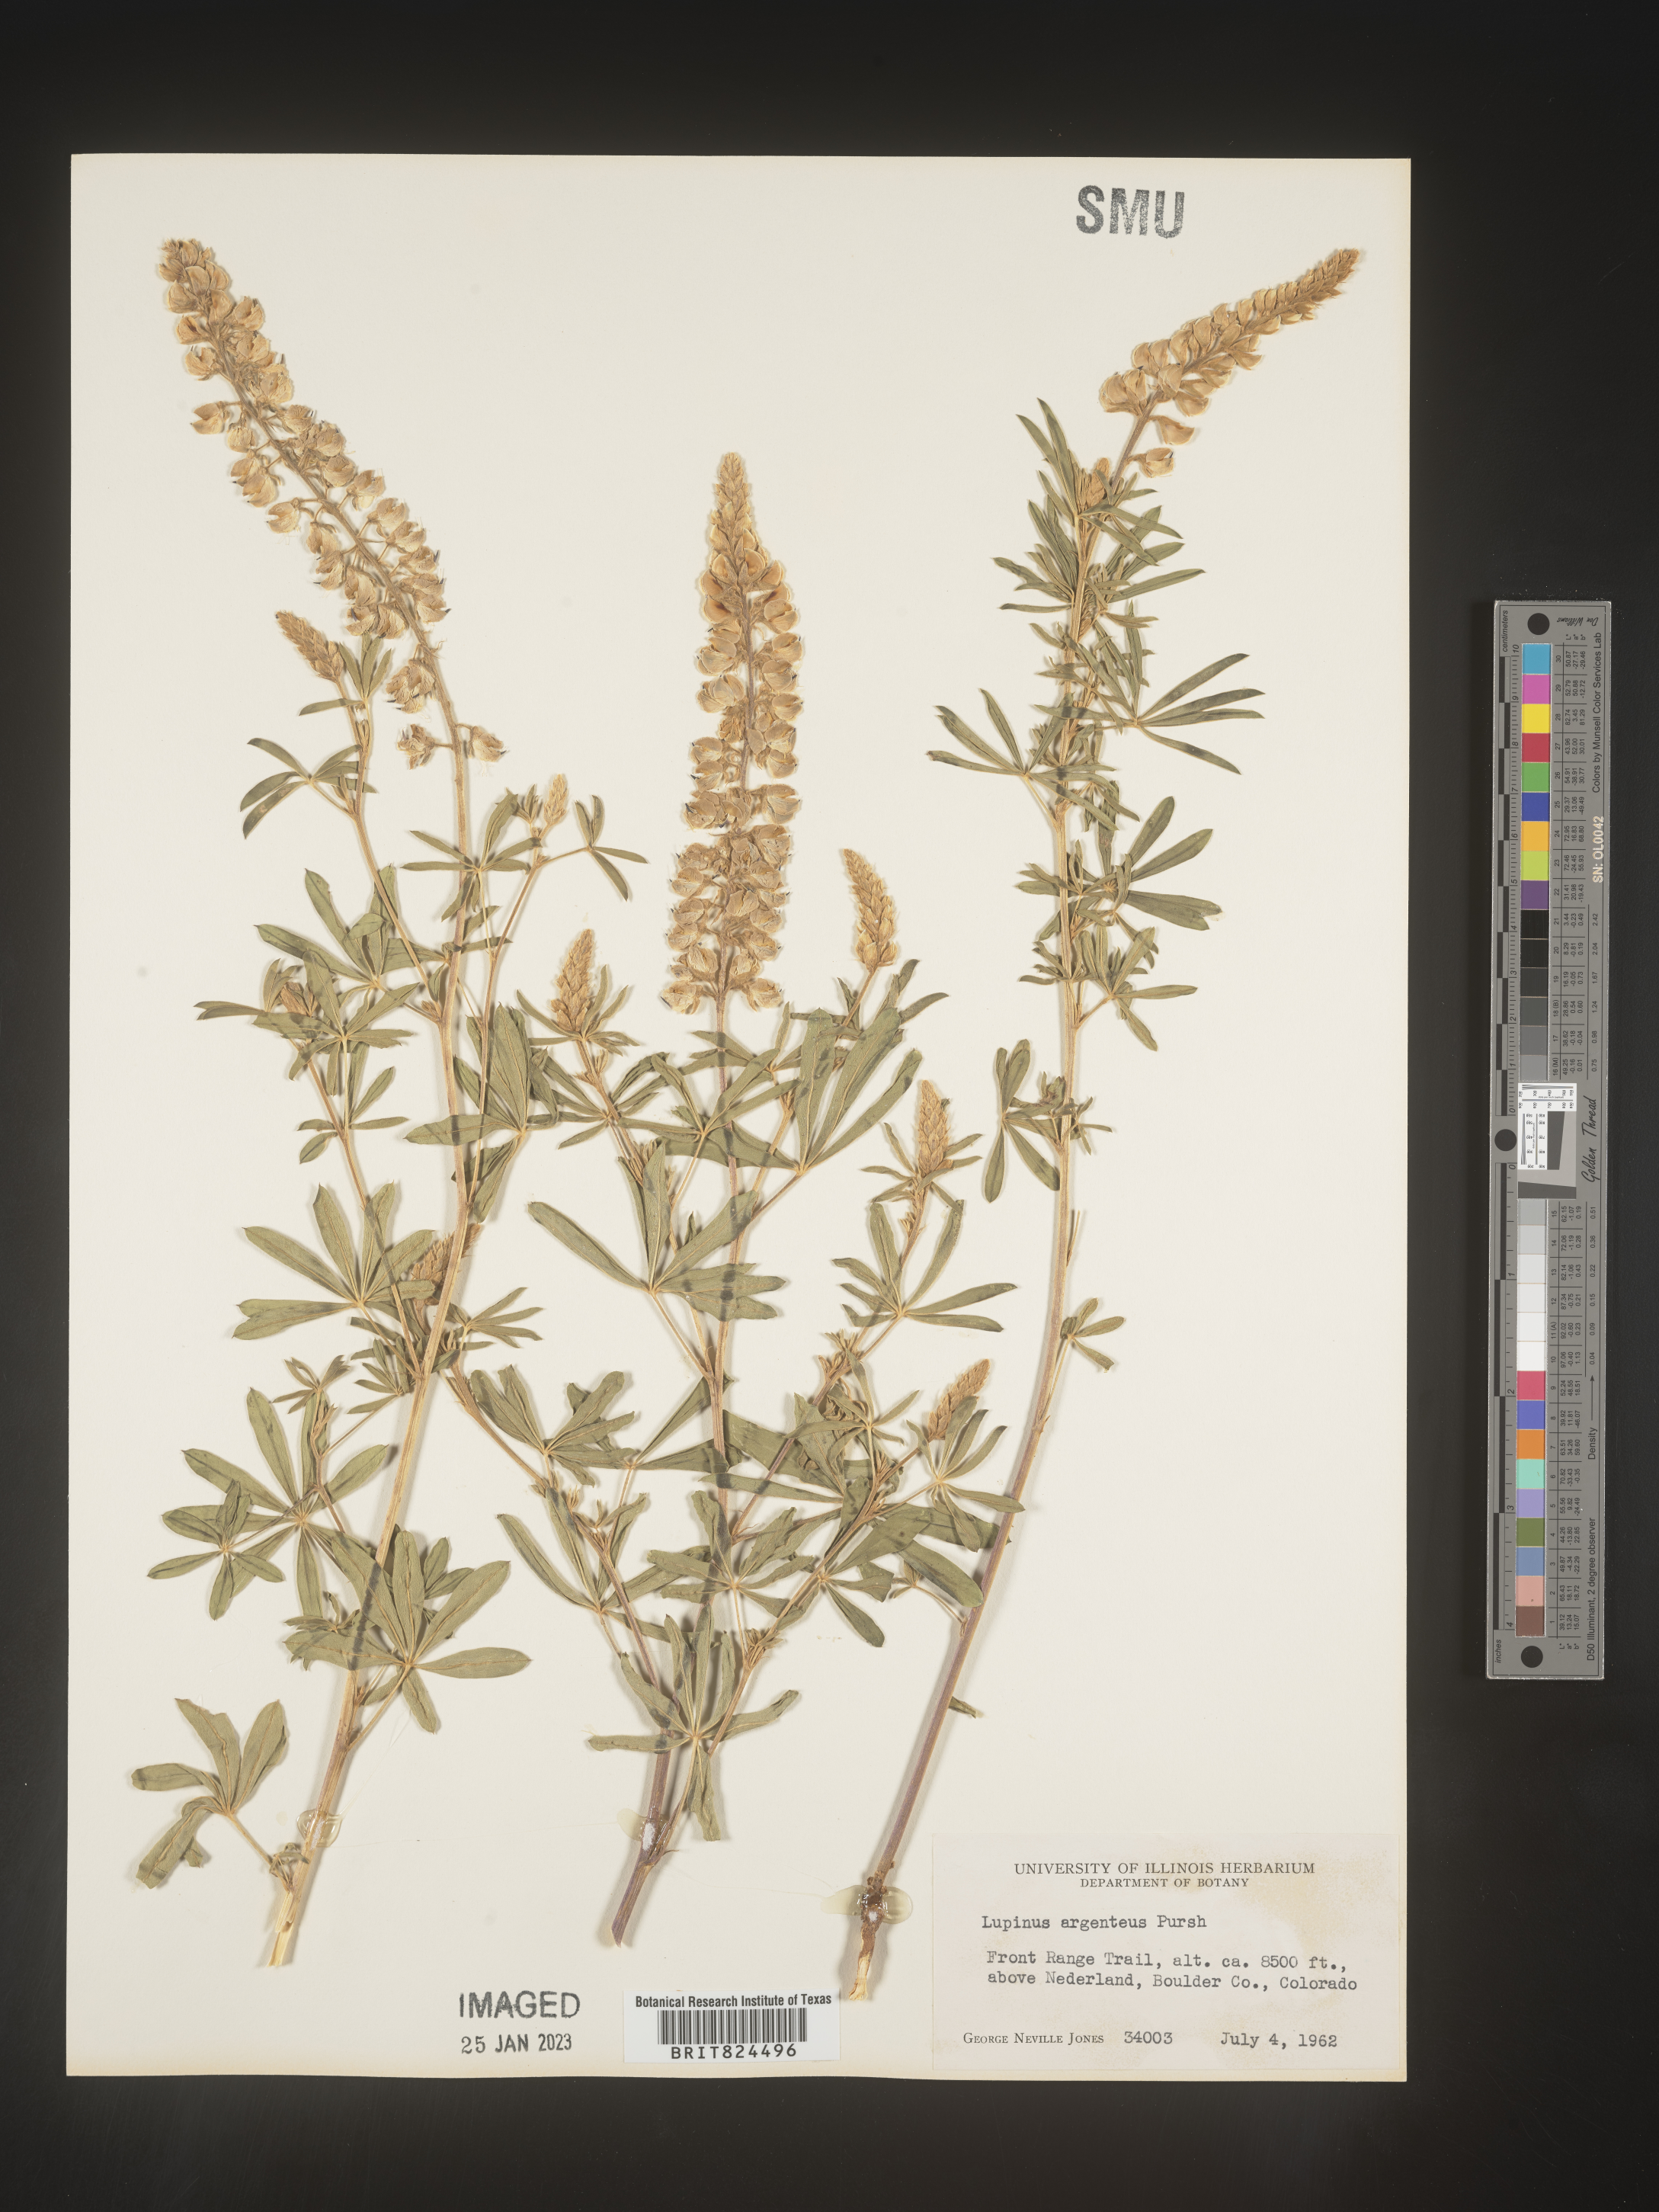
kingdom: Plantae
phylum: Tracheophyta
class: Magnoliopsida
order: Fabales
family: Fabaceae
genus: Lupinus
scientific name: Lupinus argenteus
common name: Silvery lupine
